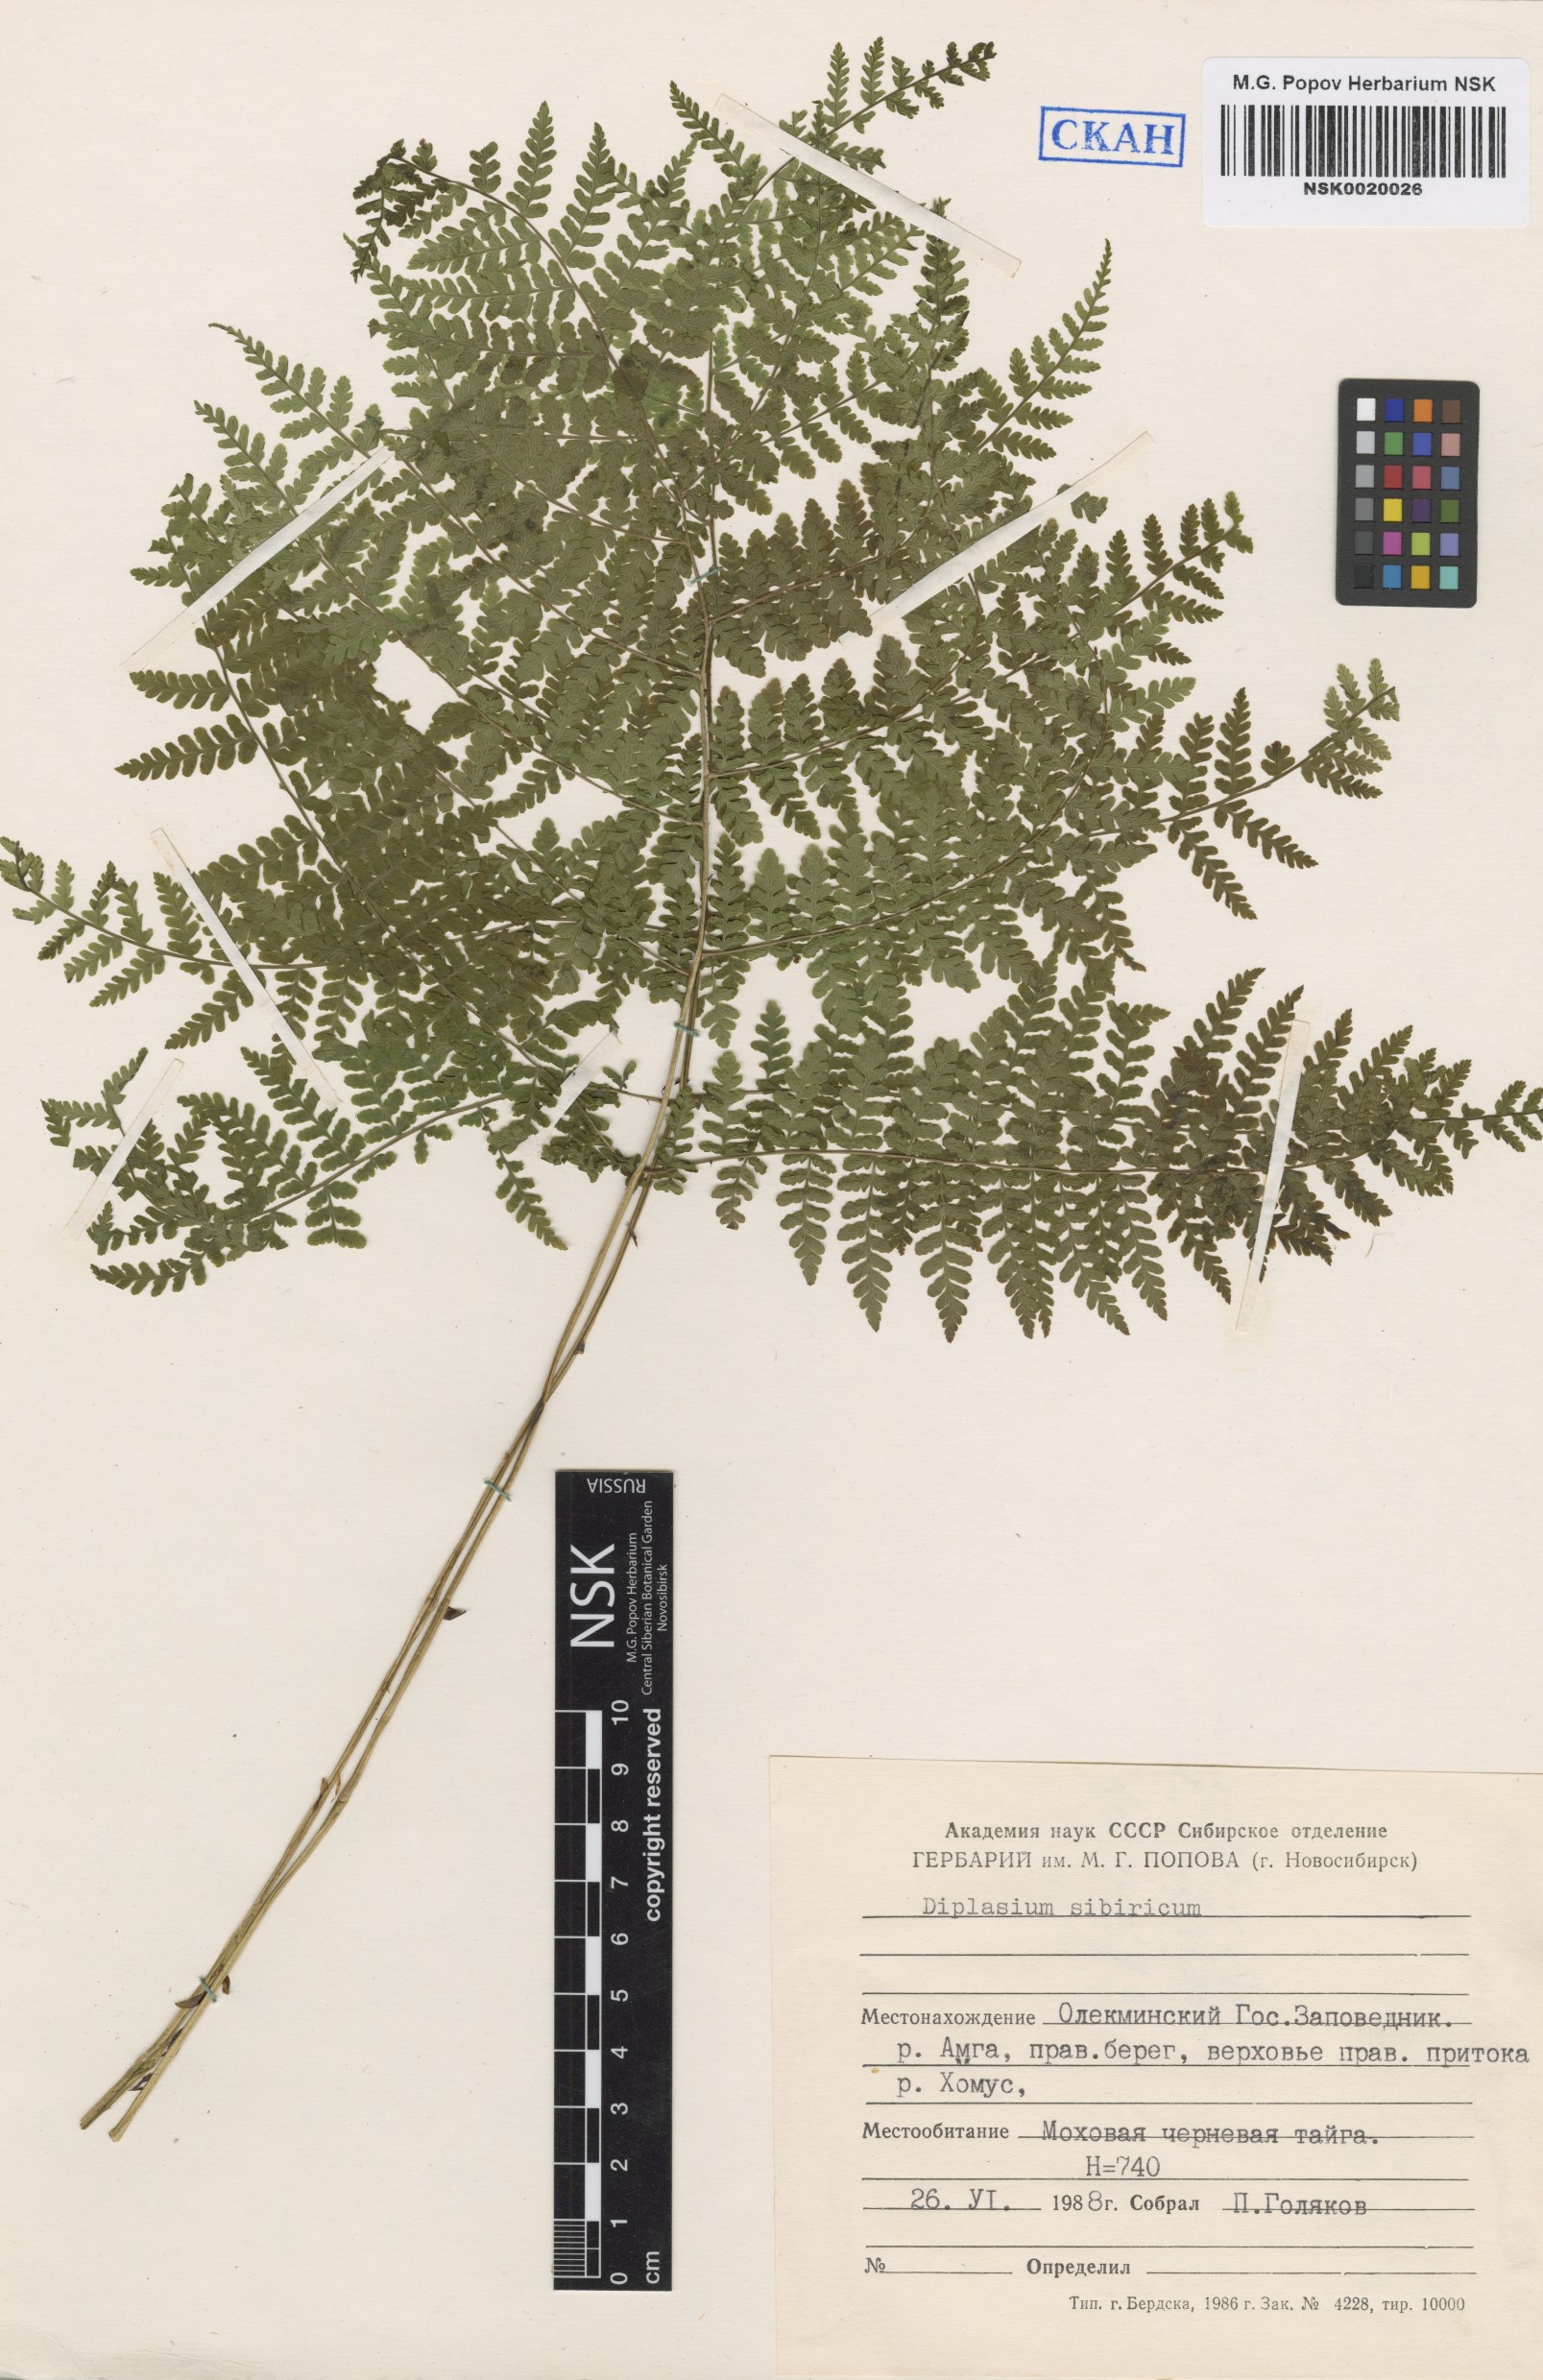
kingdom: Plantae
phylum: Tracheophyta
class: Polypodiopsida
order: Polypodiales
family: Athyriaceae
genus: Diplazium
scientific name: Diplazium sibiricum
